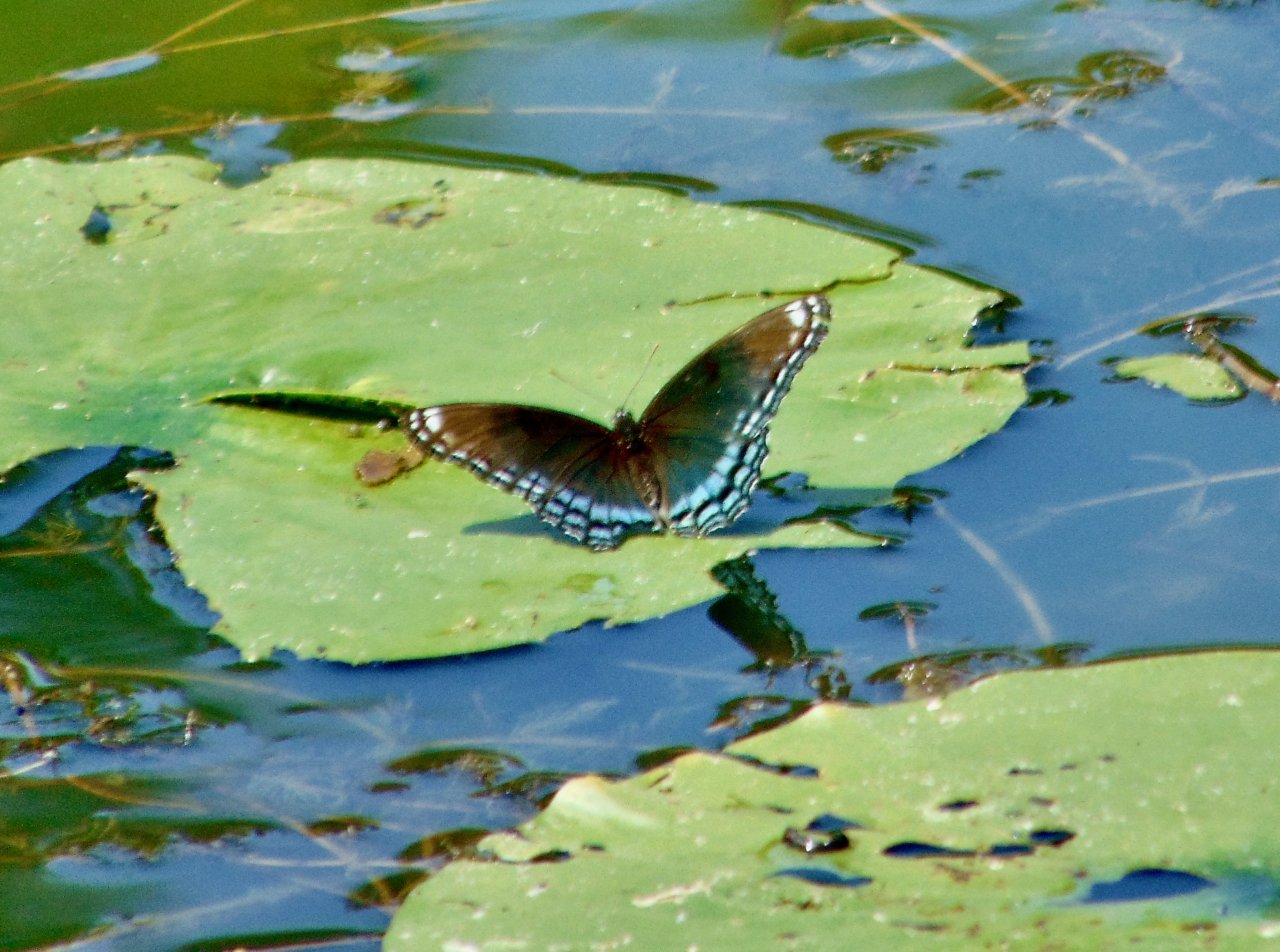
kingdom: Animalia
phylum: Arthropoda
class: Insecta
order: Lepidoptera
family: Nymphalidae
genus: Limenitis
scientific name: Limenitis astyanax
